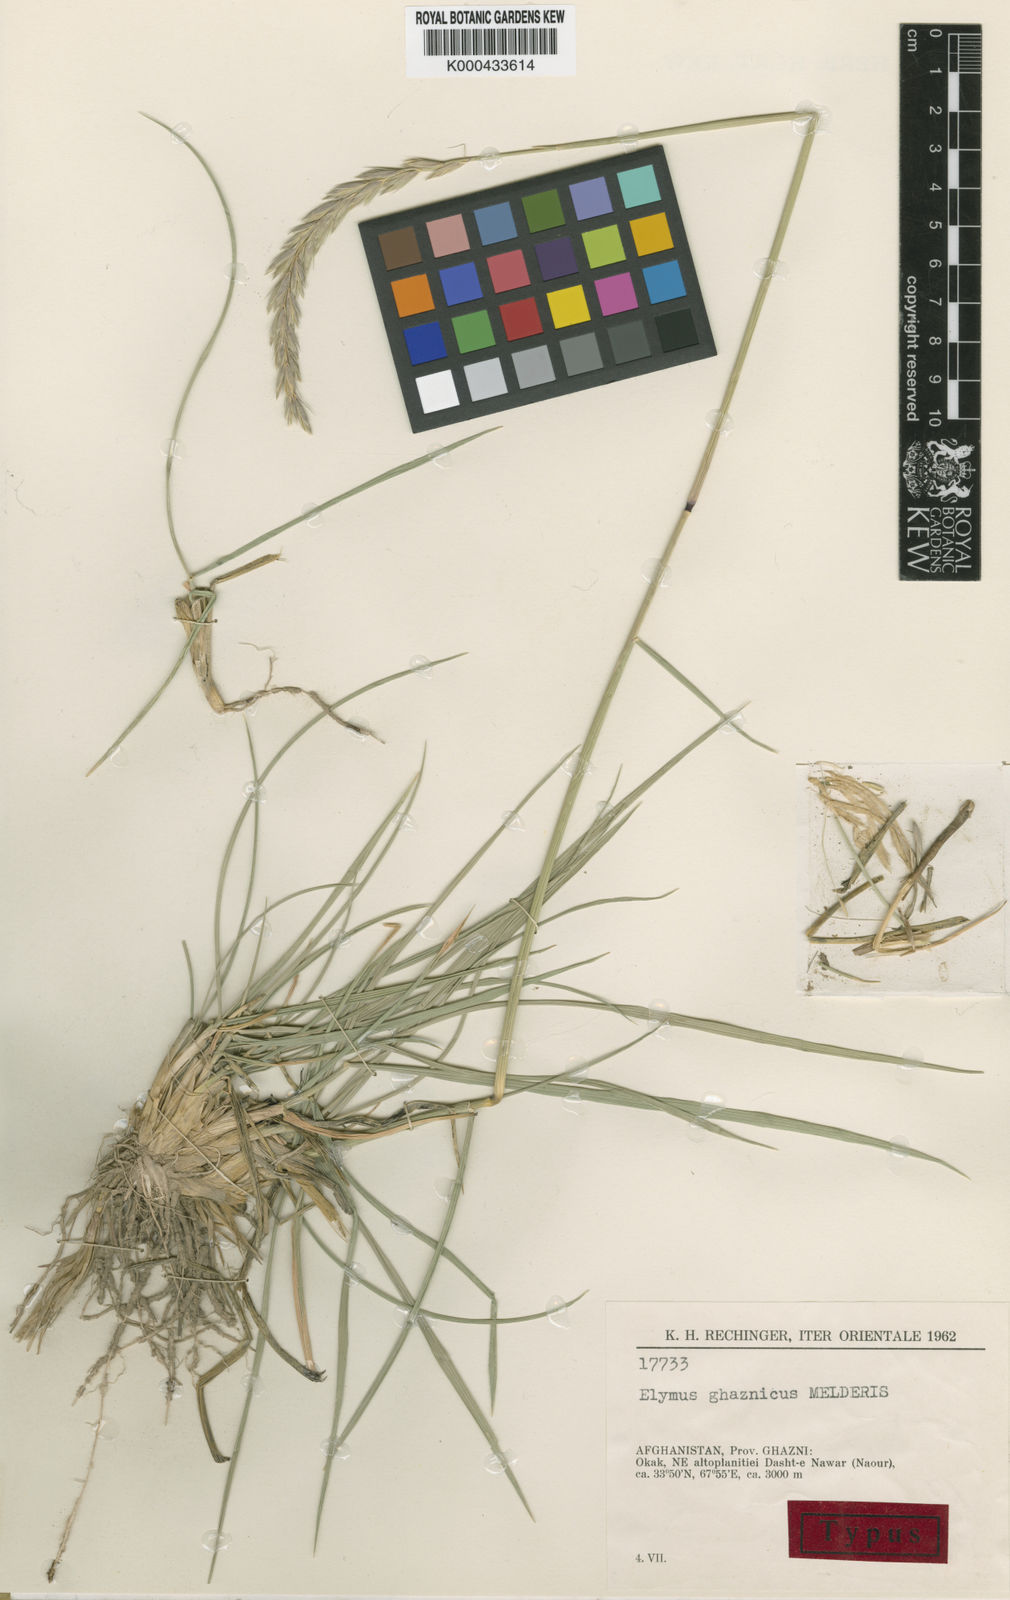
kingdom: Plantae
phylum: Tracheophyta
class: Liliopsida
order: Poales
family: Poaceae
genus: Leymus
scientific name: Leymus
